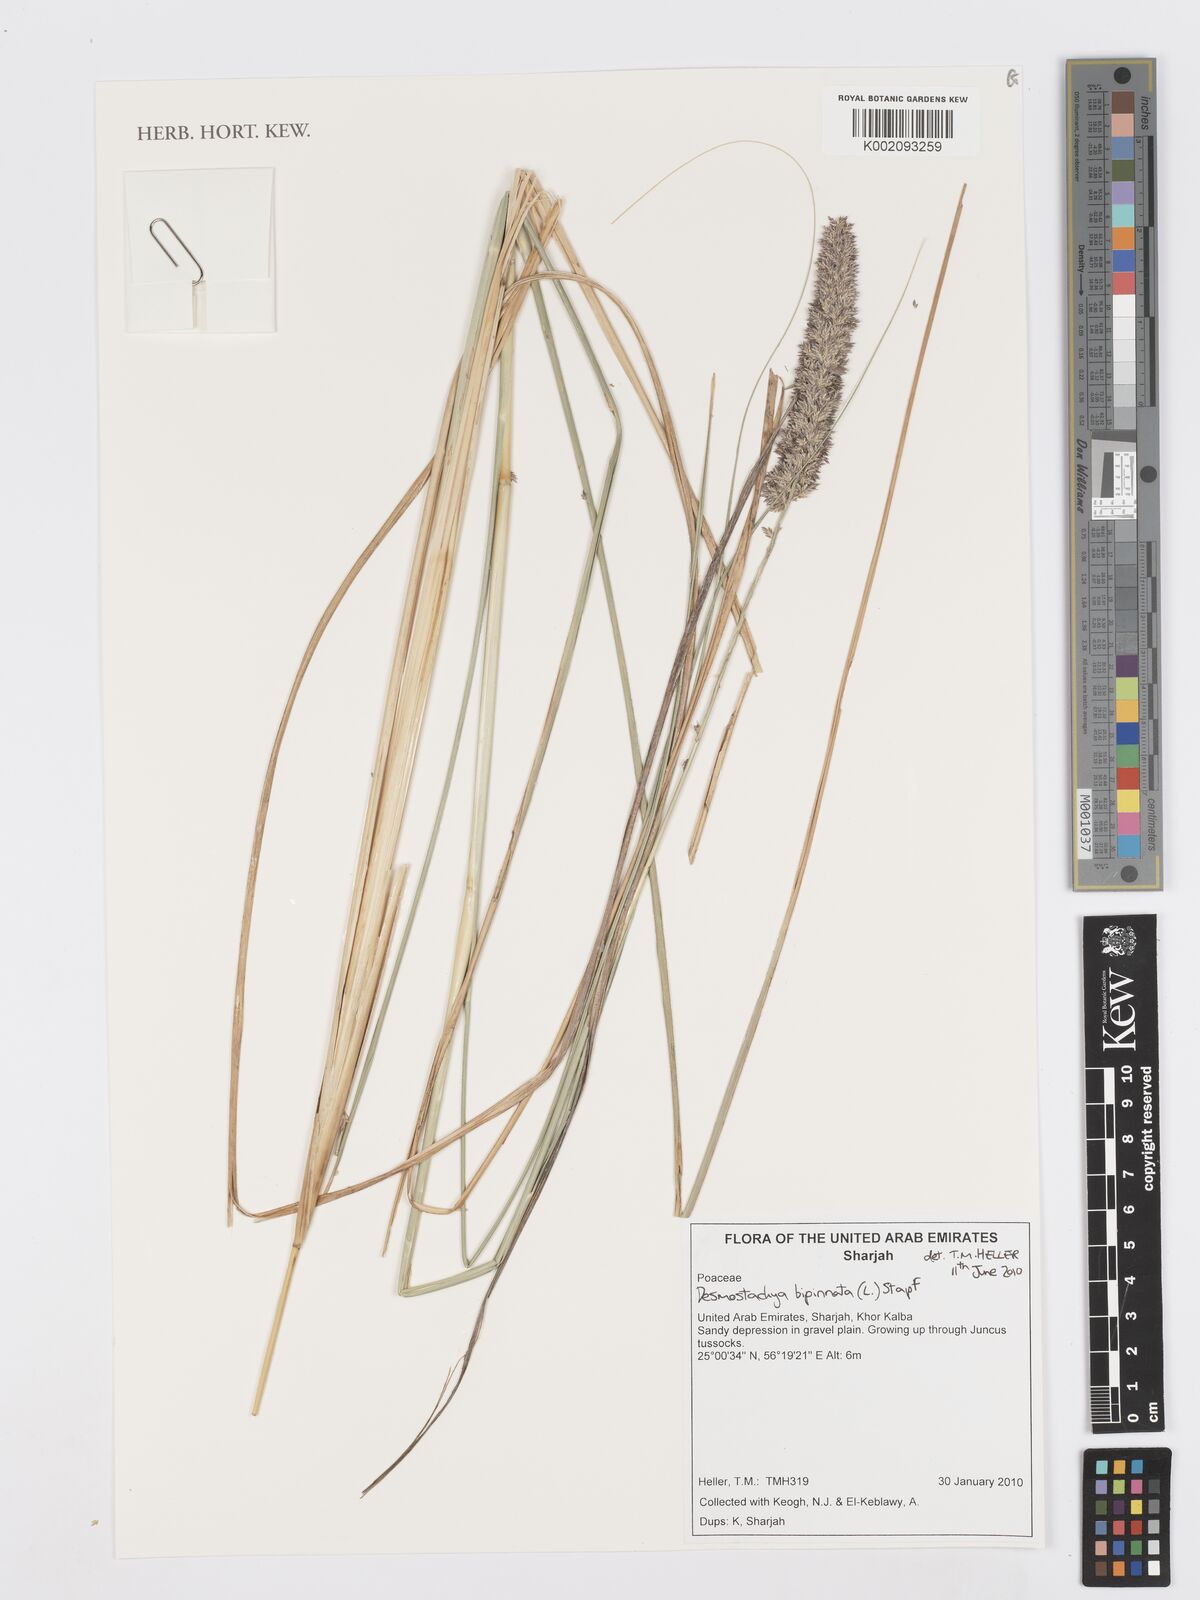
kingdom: Plantae
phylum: Tracheophyta
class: Liliopsida
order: Poales
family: Poaceae
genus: Desmostachya
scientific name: Desmostachya bipinnata
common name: Crowfoot grass
